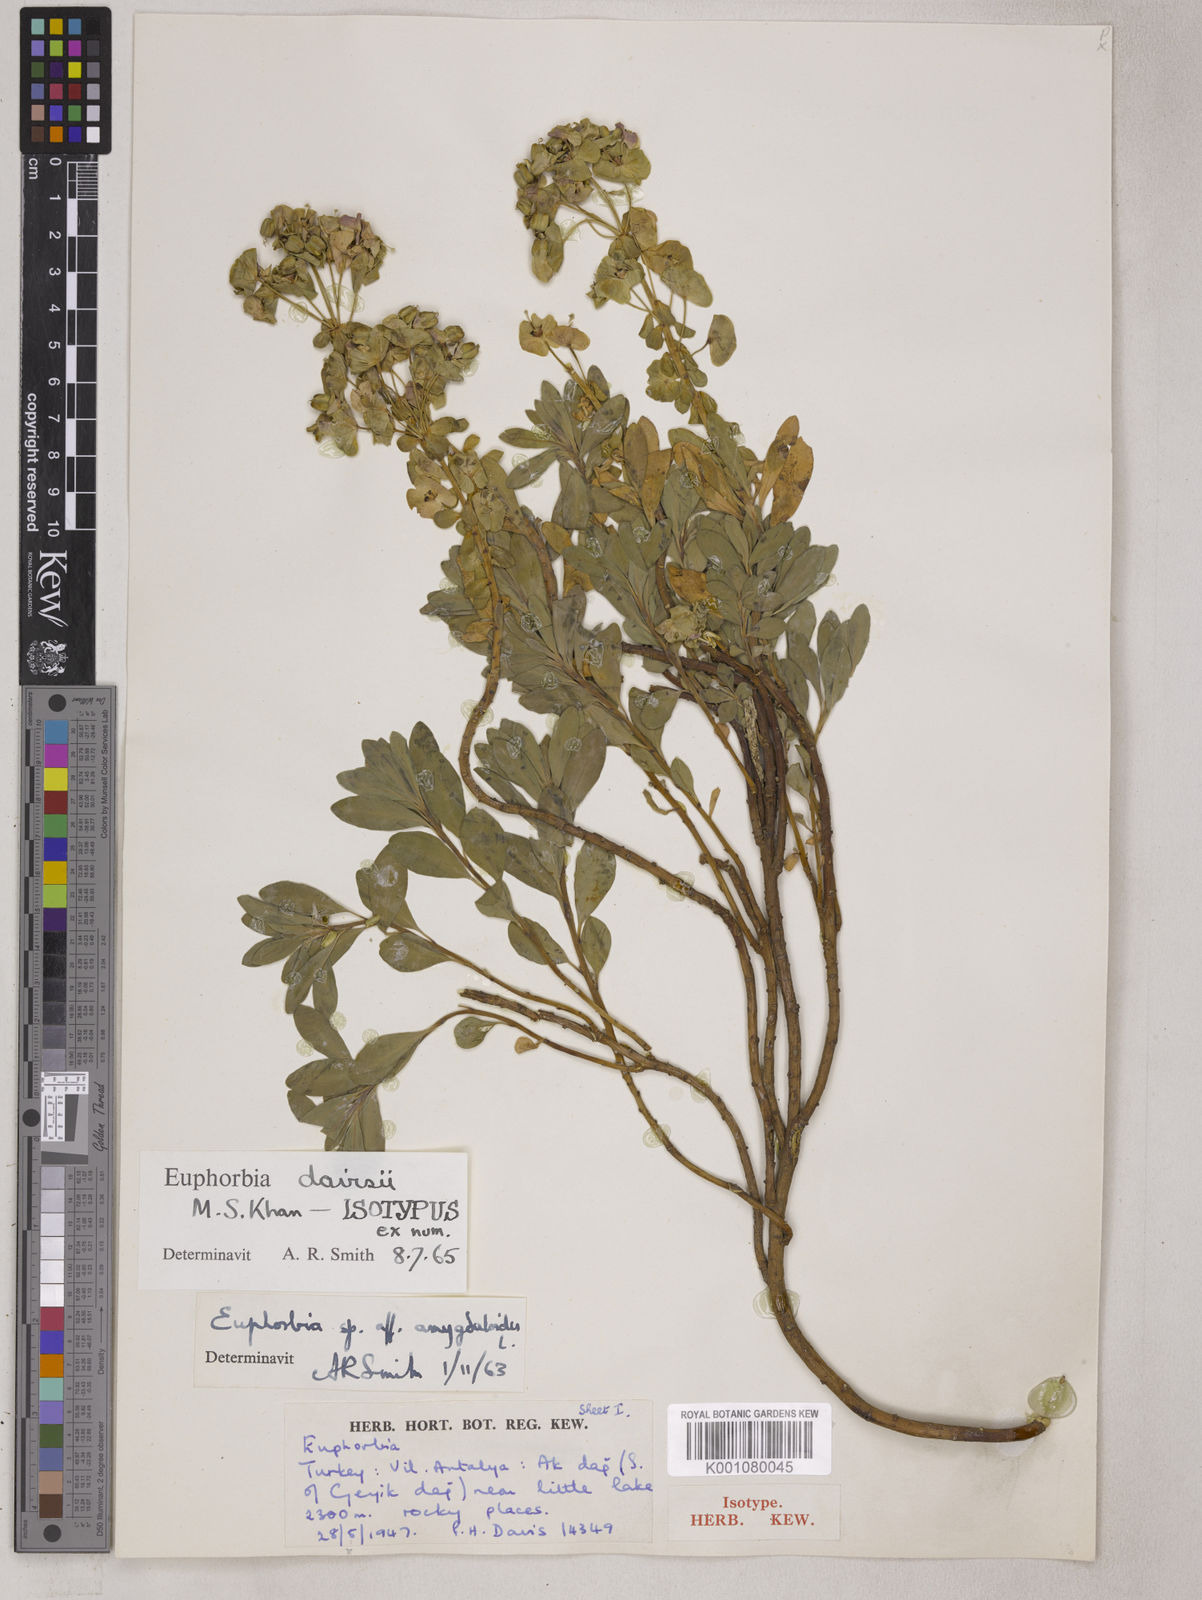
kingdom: Plantae
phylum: Tracheophyta
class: Magnoliopsida
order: Malpighiales
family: Euphorbiaceae
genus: Euphorbia
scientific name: Euphorbia davisii
